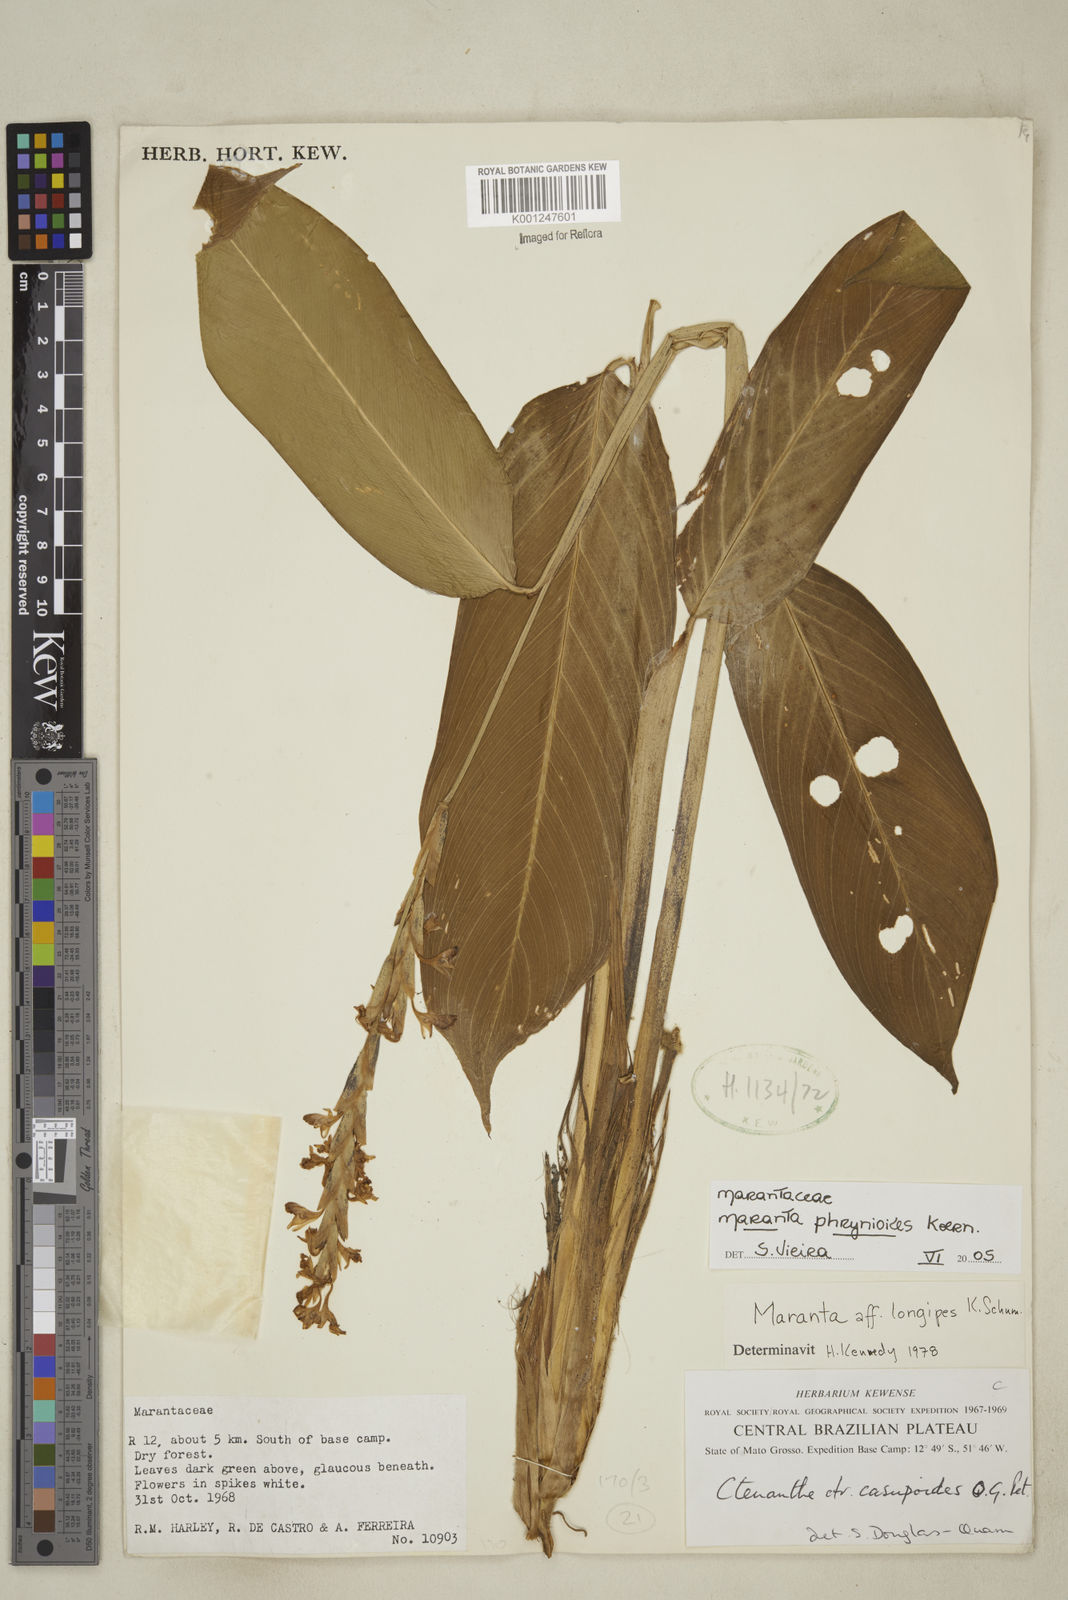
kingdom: Plantae
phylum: Tracheophyta
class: Liliopsida
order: Zingiberales
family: Marantaceae
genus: Maranta
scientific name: Maranta phrynioides
